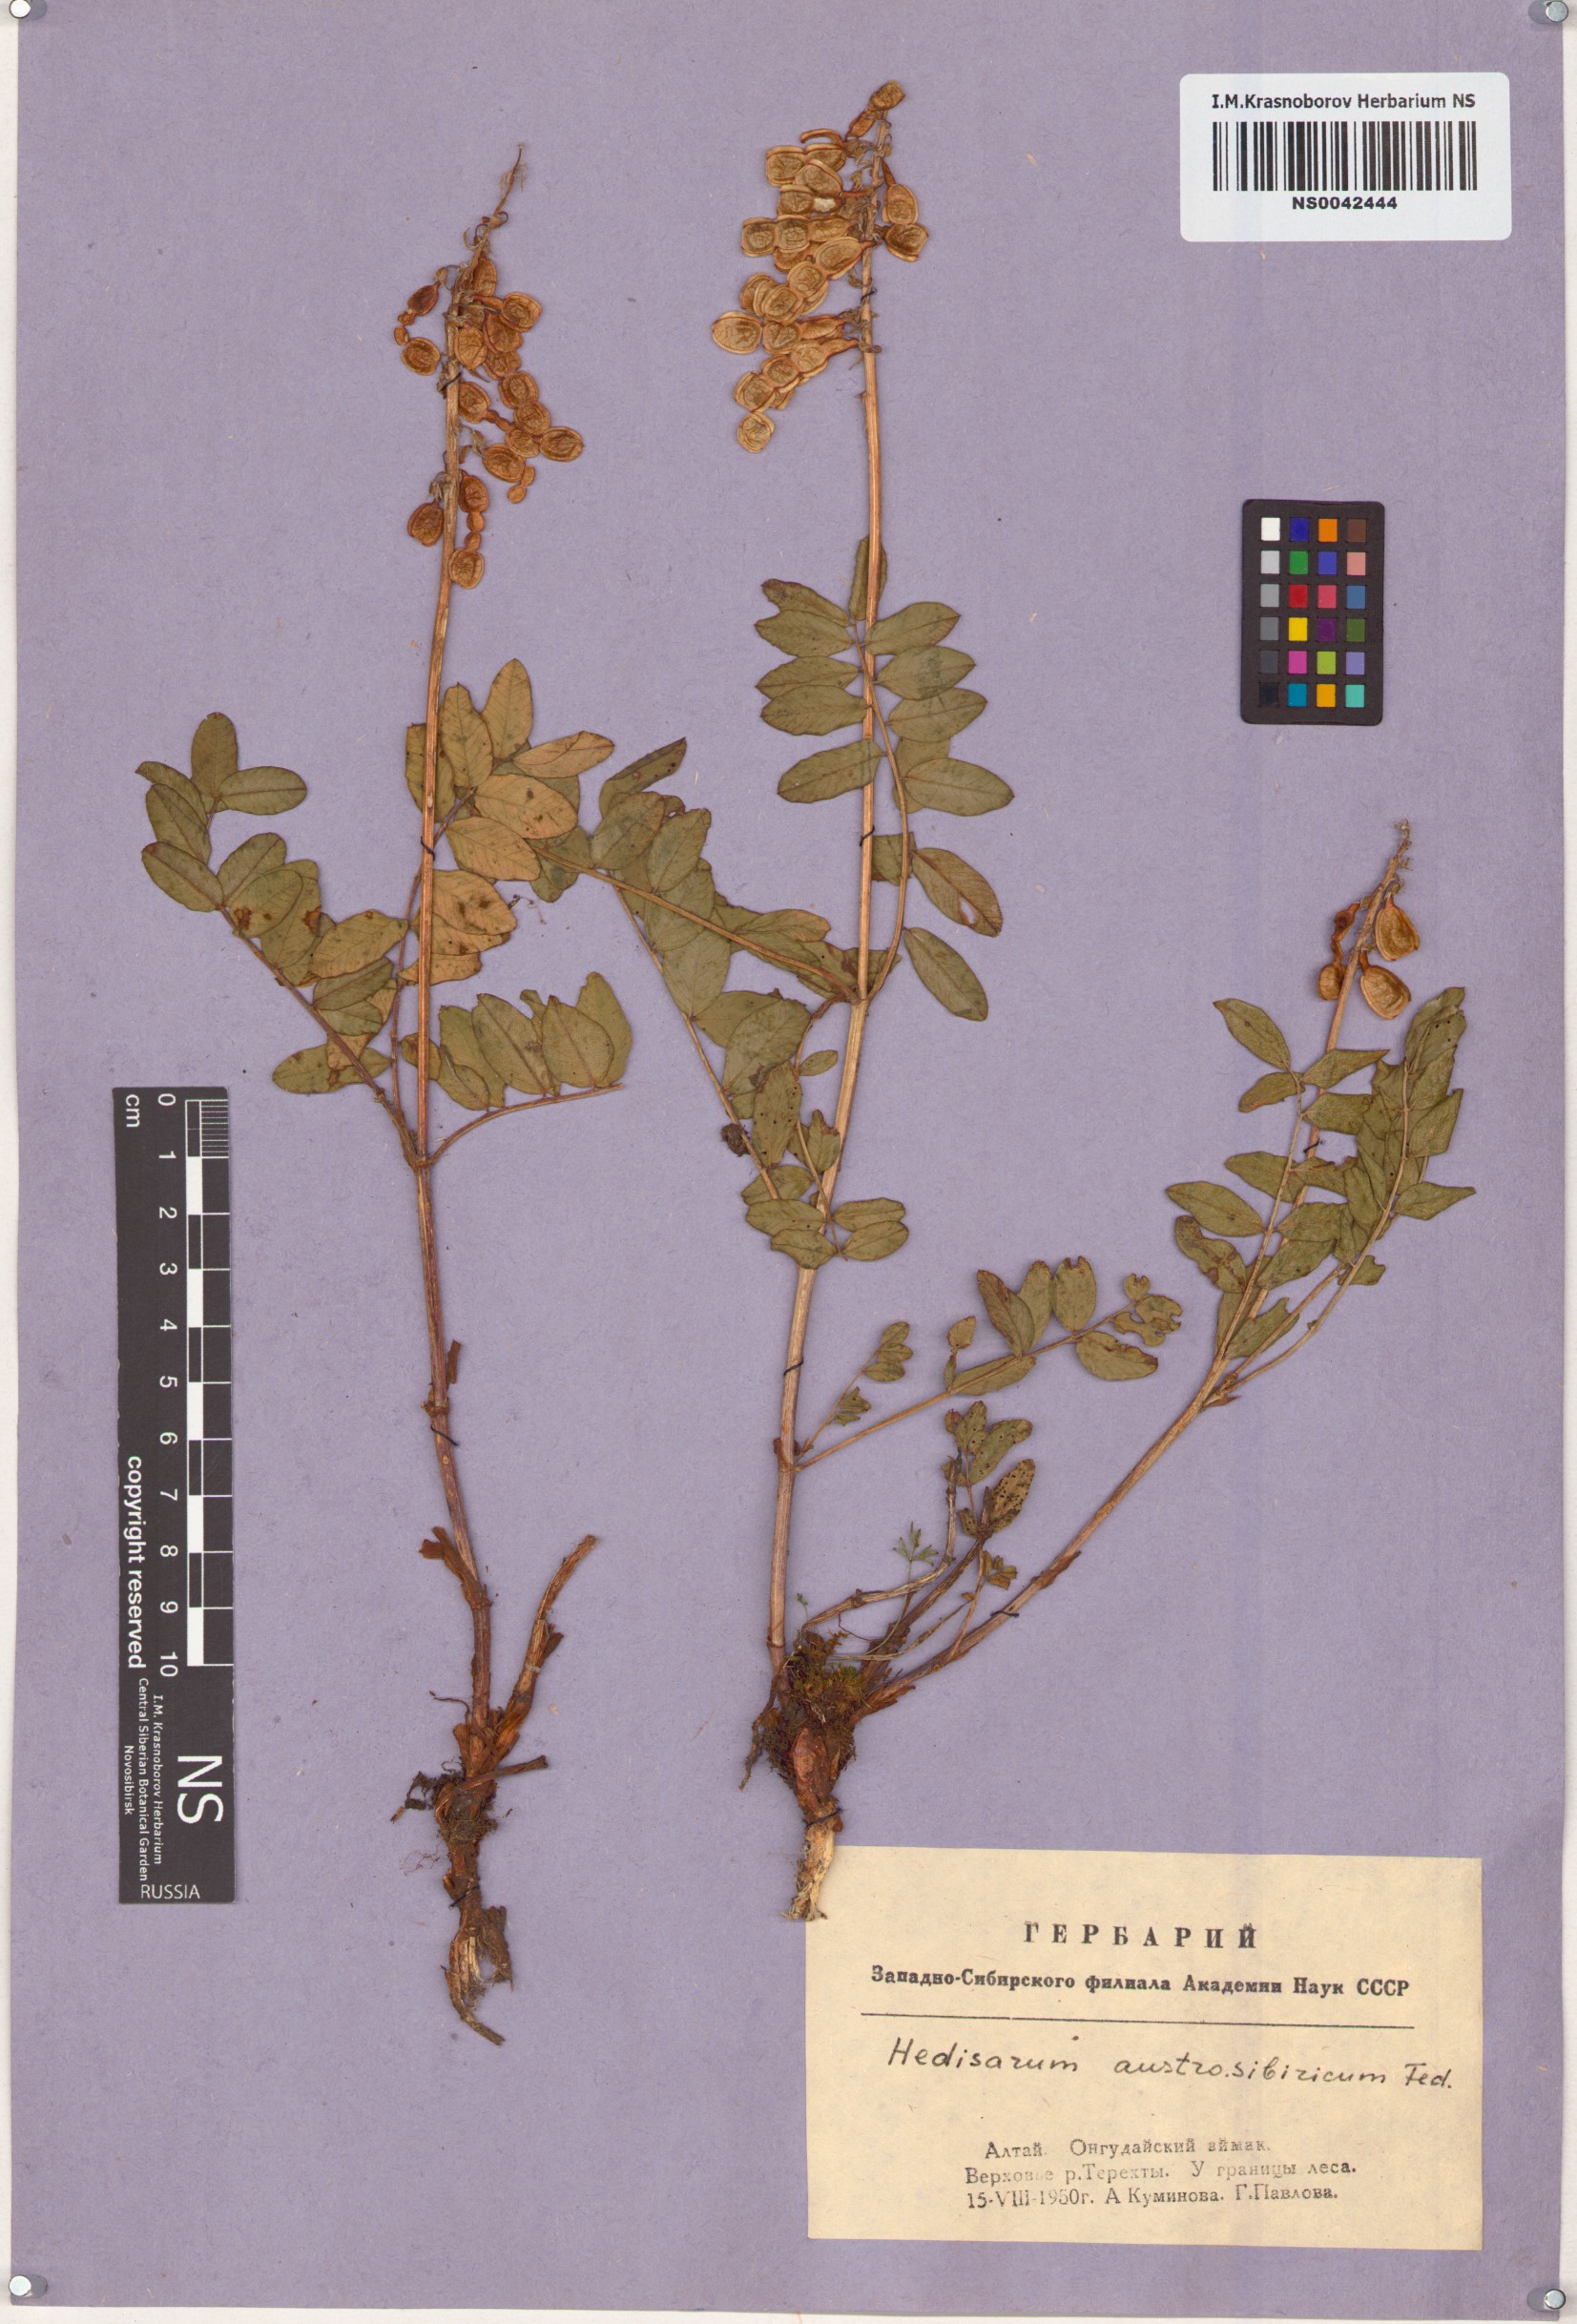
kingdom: Plantae
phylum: Tracheophyta
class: Magnoliopsida
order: Fabales
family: Fabaceae
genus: Hedysarum
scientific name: Hedysarum neglectum
